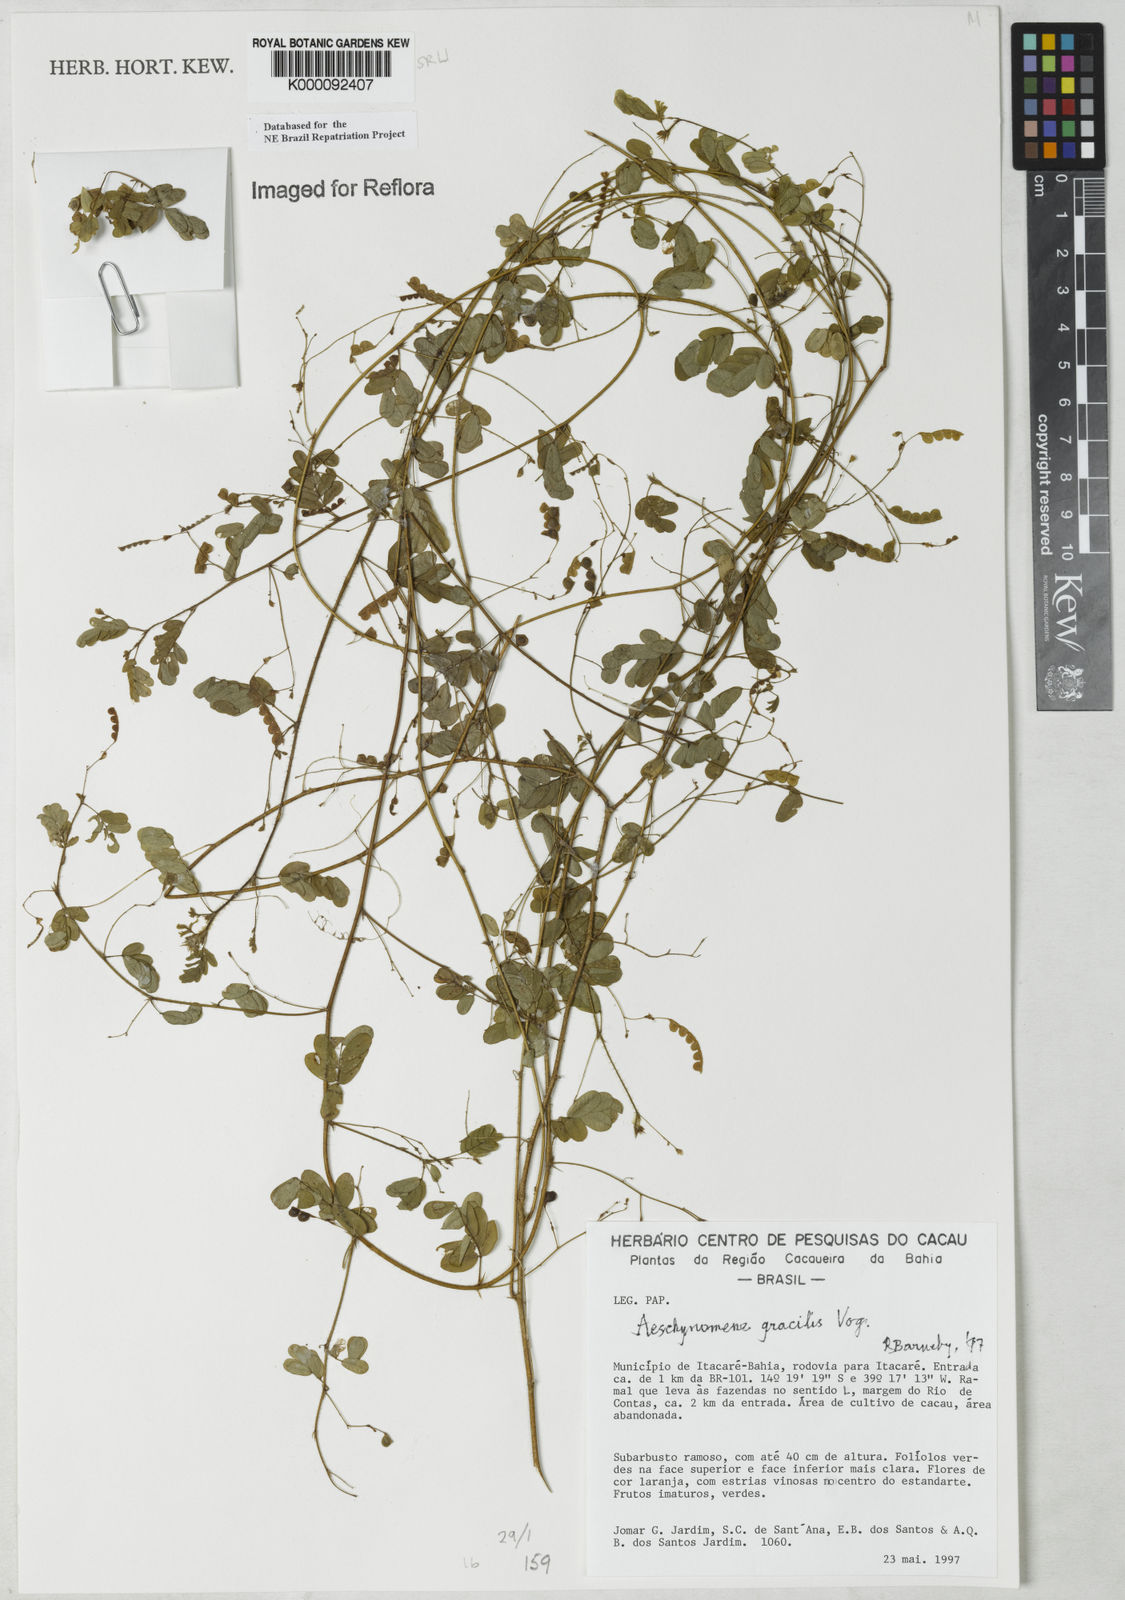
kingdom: Plantae
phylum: Tracheophyta
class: Magnoliopsida
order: Fabales
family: Fabaceae
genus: Ctenodon
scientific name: Ctenodon gracilis
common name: Puerto rico jointvetch
